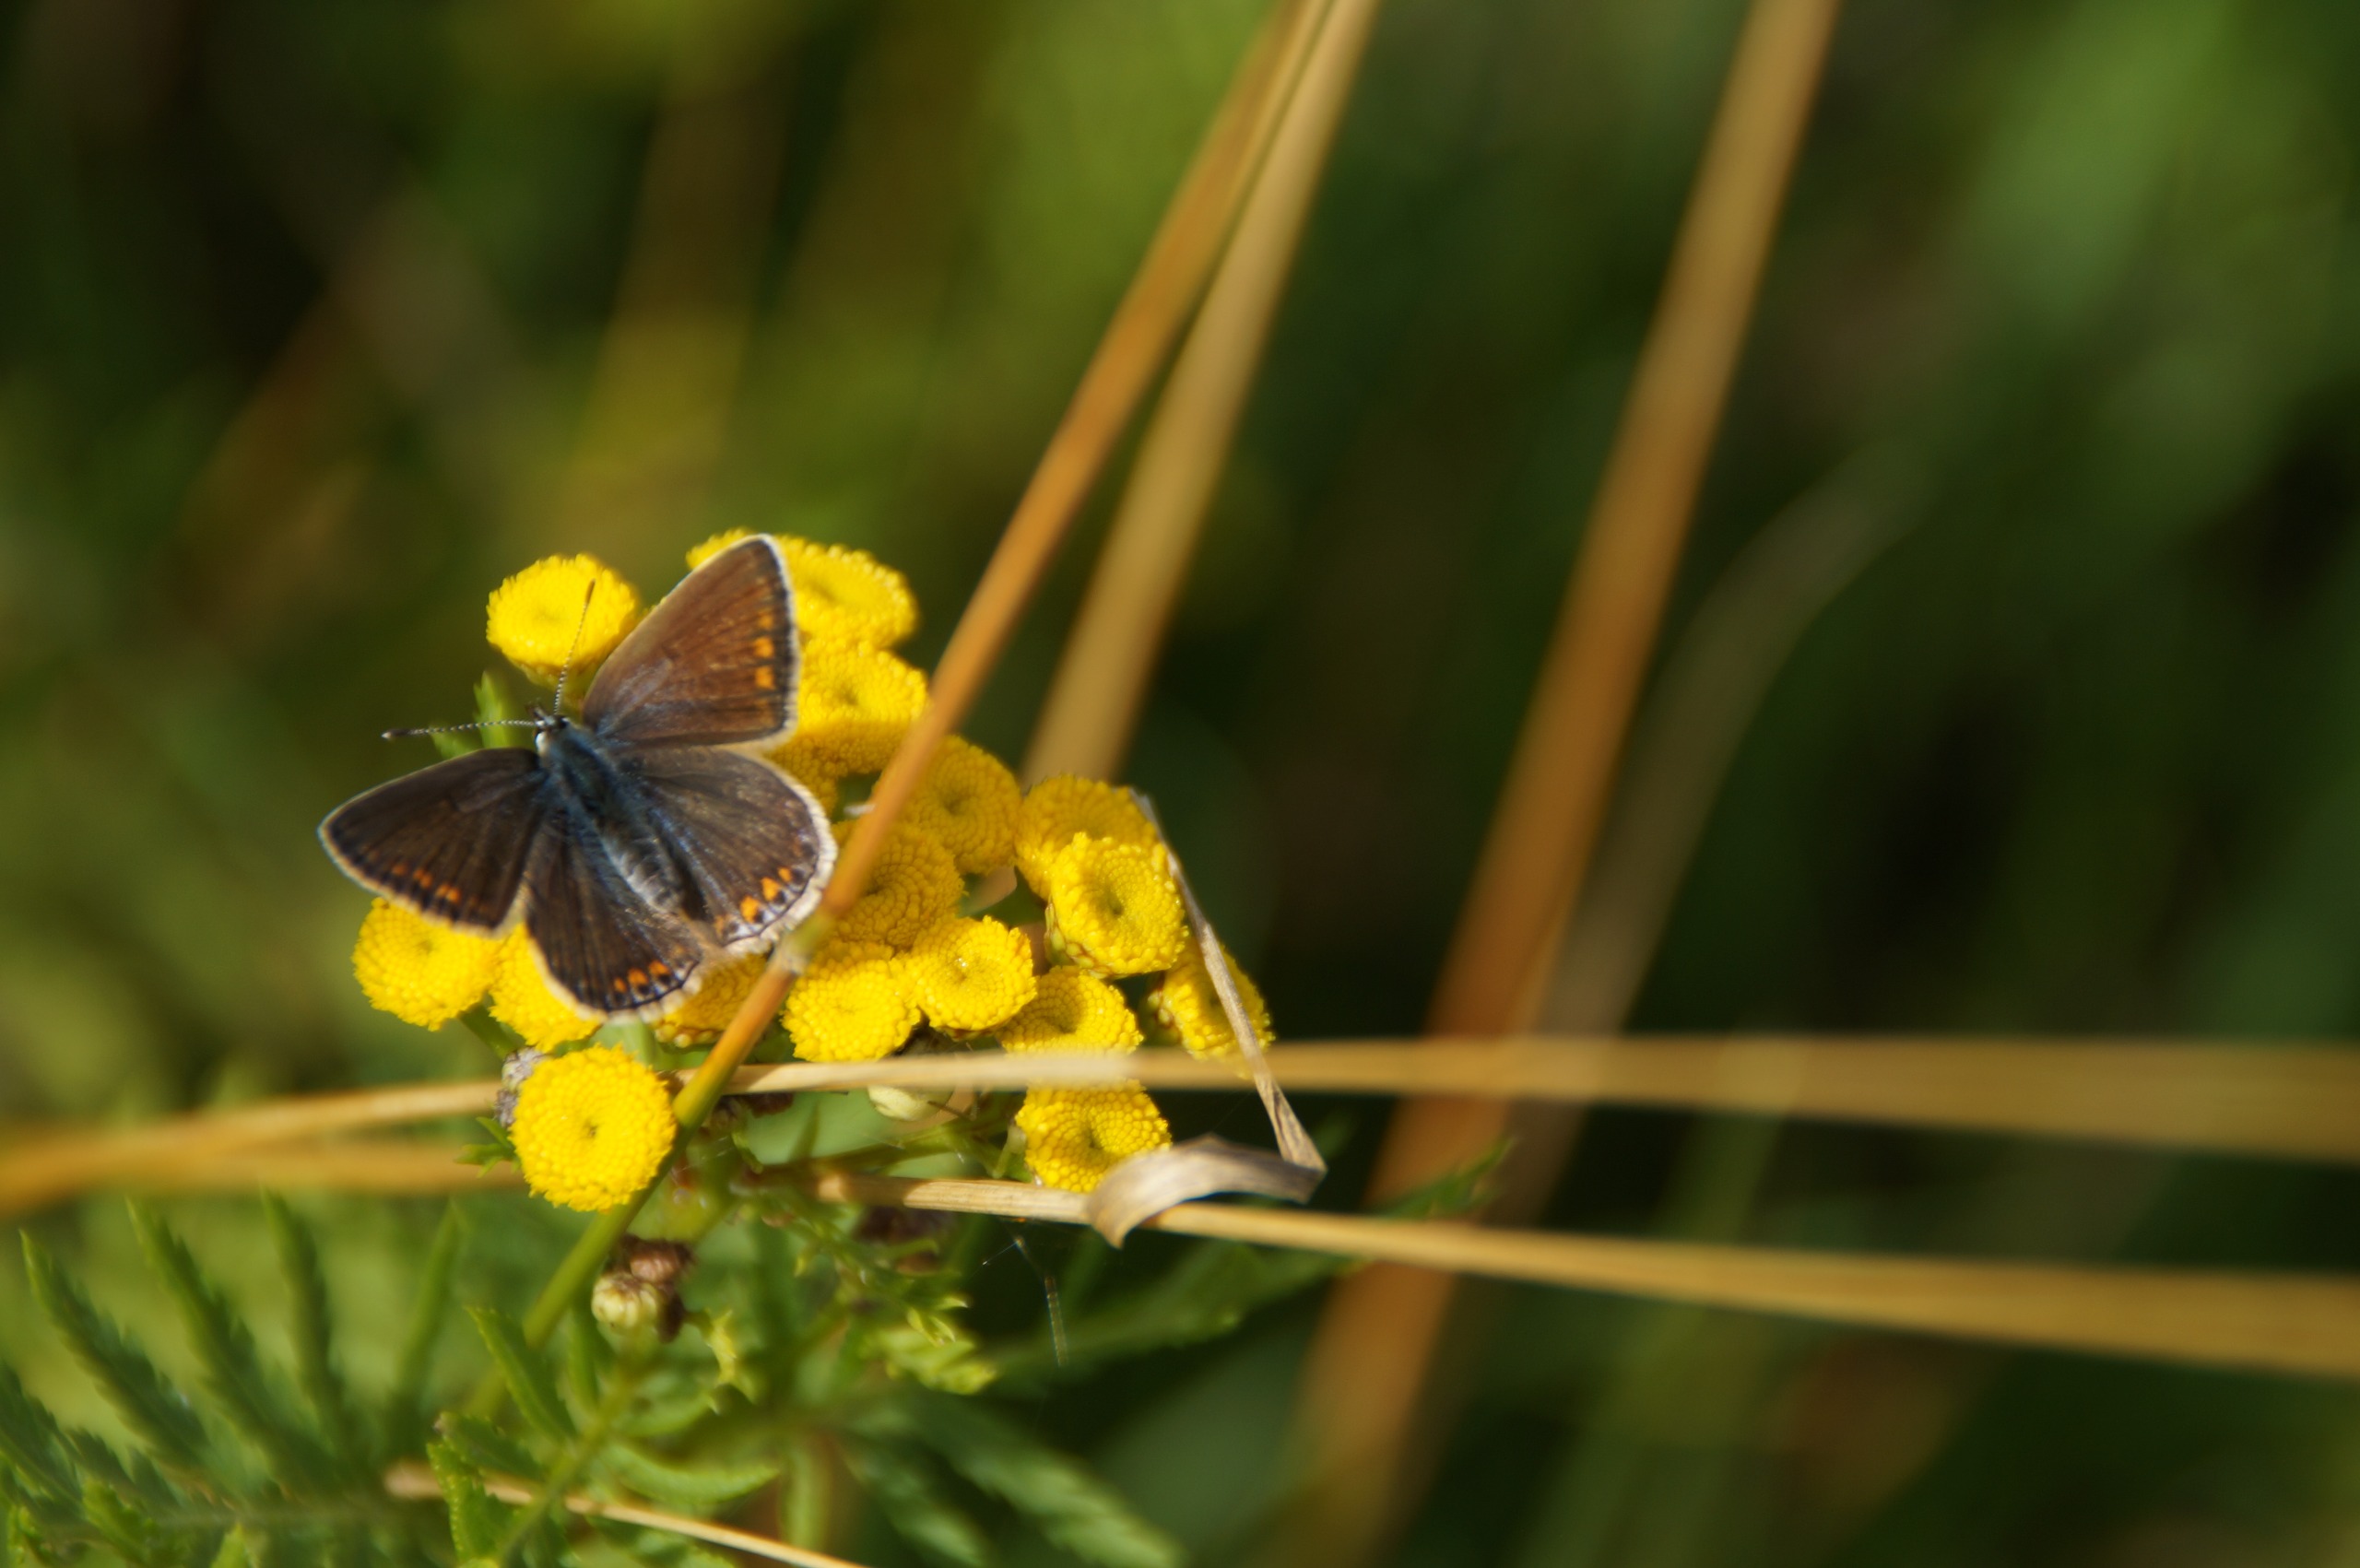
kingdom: Animalia
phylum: Arthropoda
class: Insecta
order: Lepidoptera
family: Lycaenidae
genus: Polyommatus
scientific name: Polyommatus icarus
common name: Almindelig blåfugl
